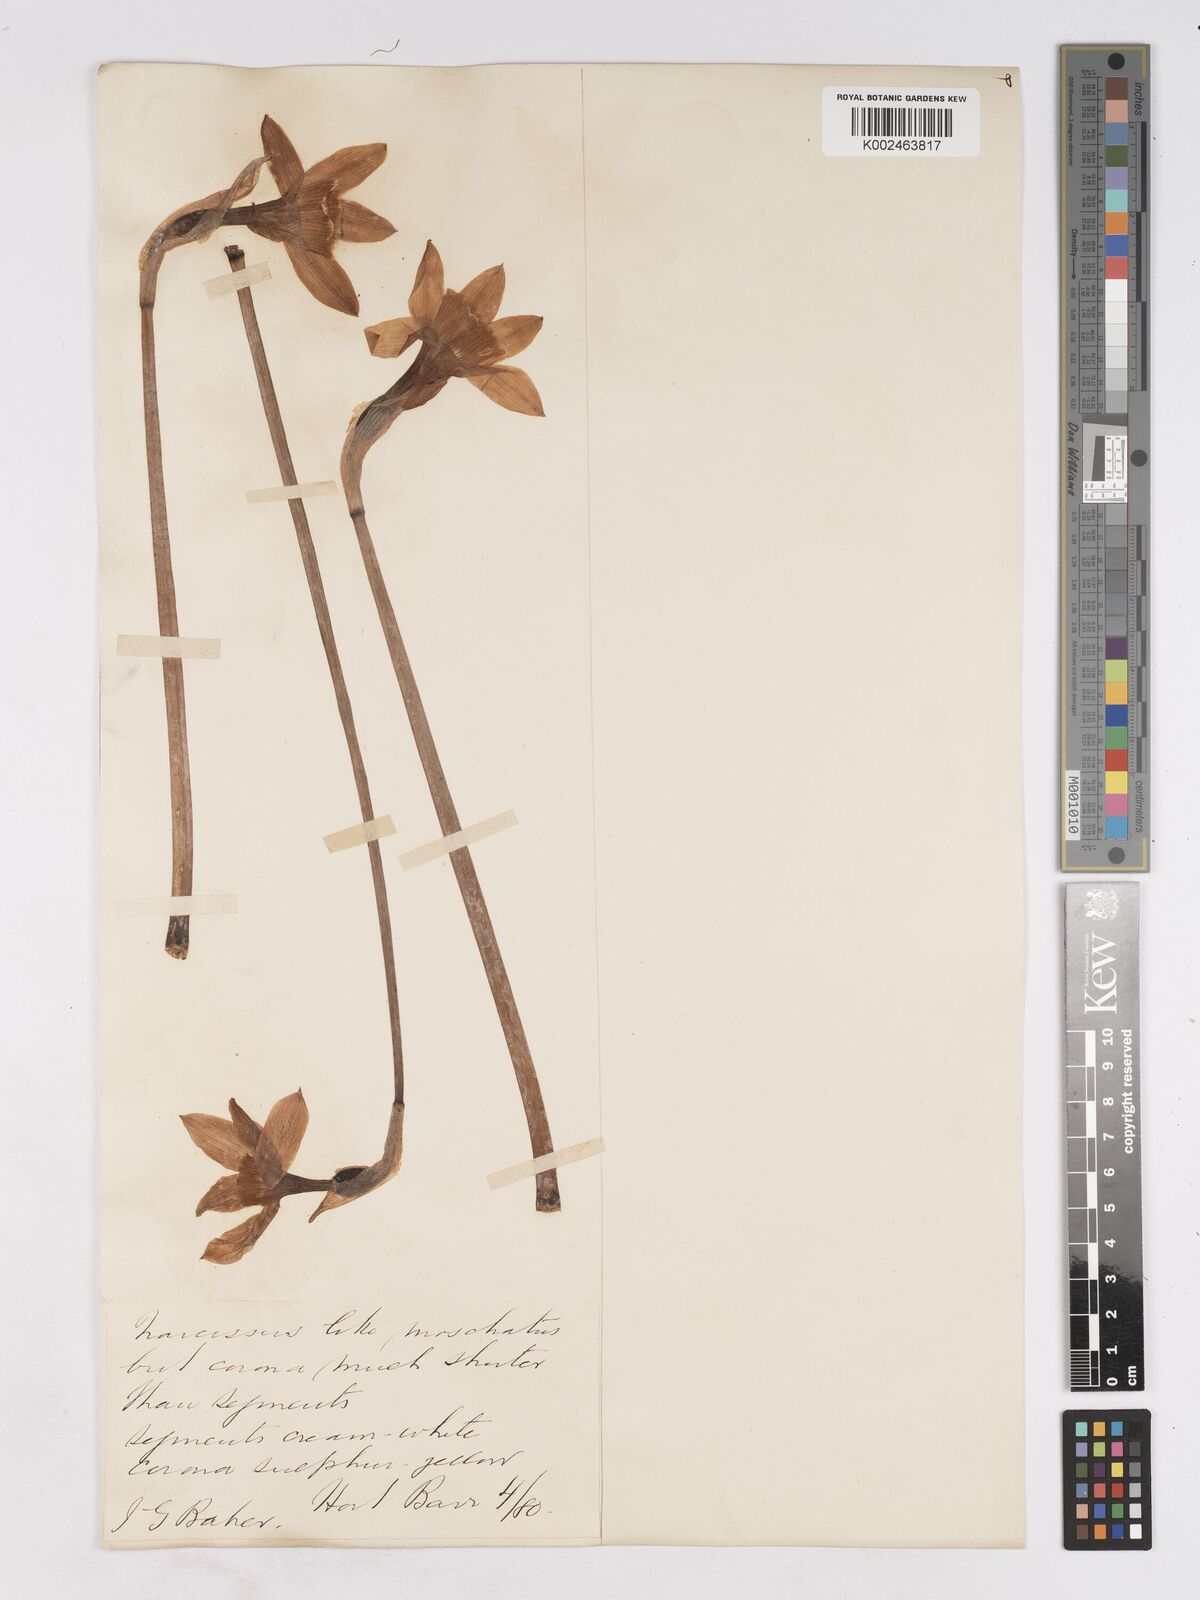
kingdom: Plantae
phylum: Tracheophyta
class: Liliopsida
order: Asparagales
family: Amaryllidaceae
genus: Narcissus
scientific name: Narcissus leedsii
